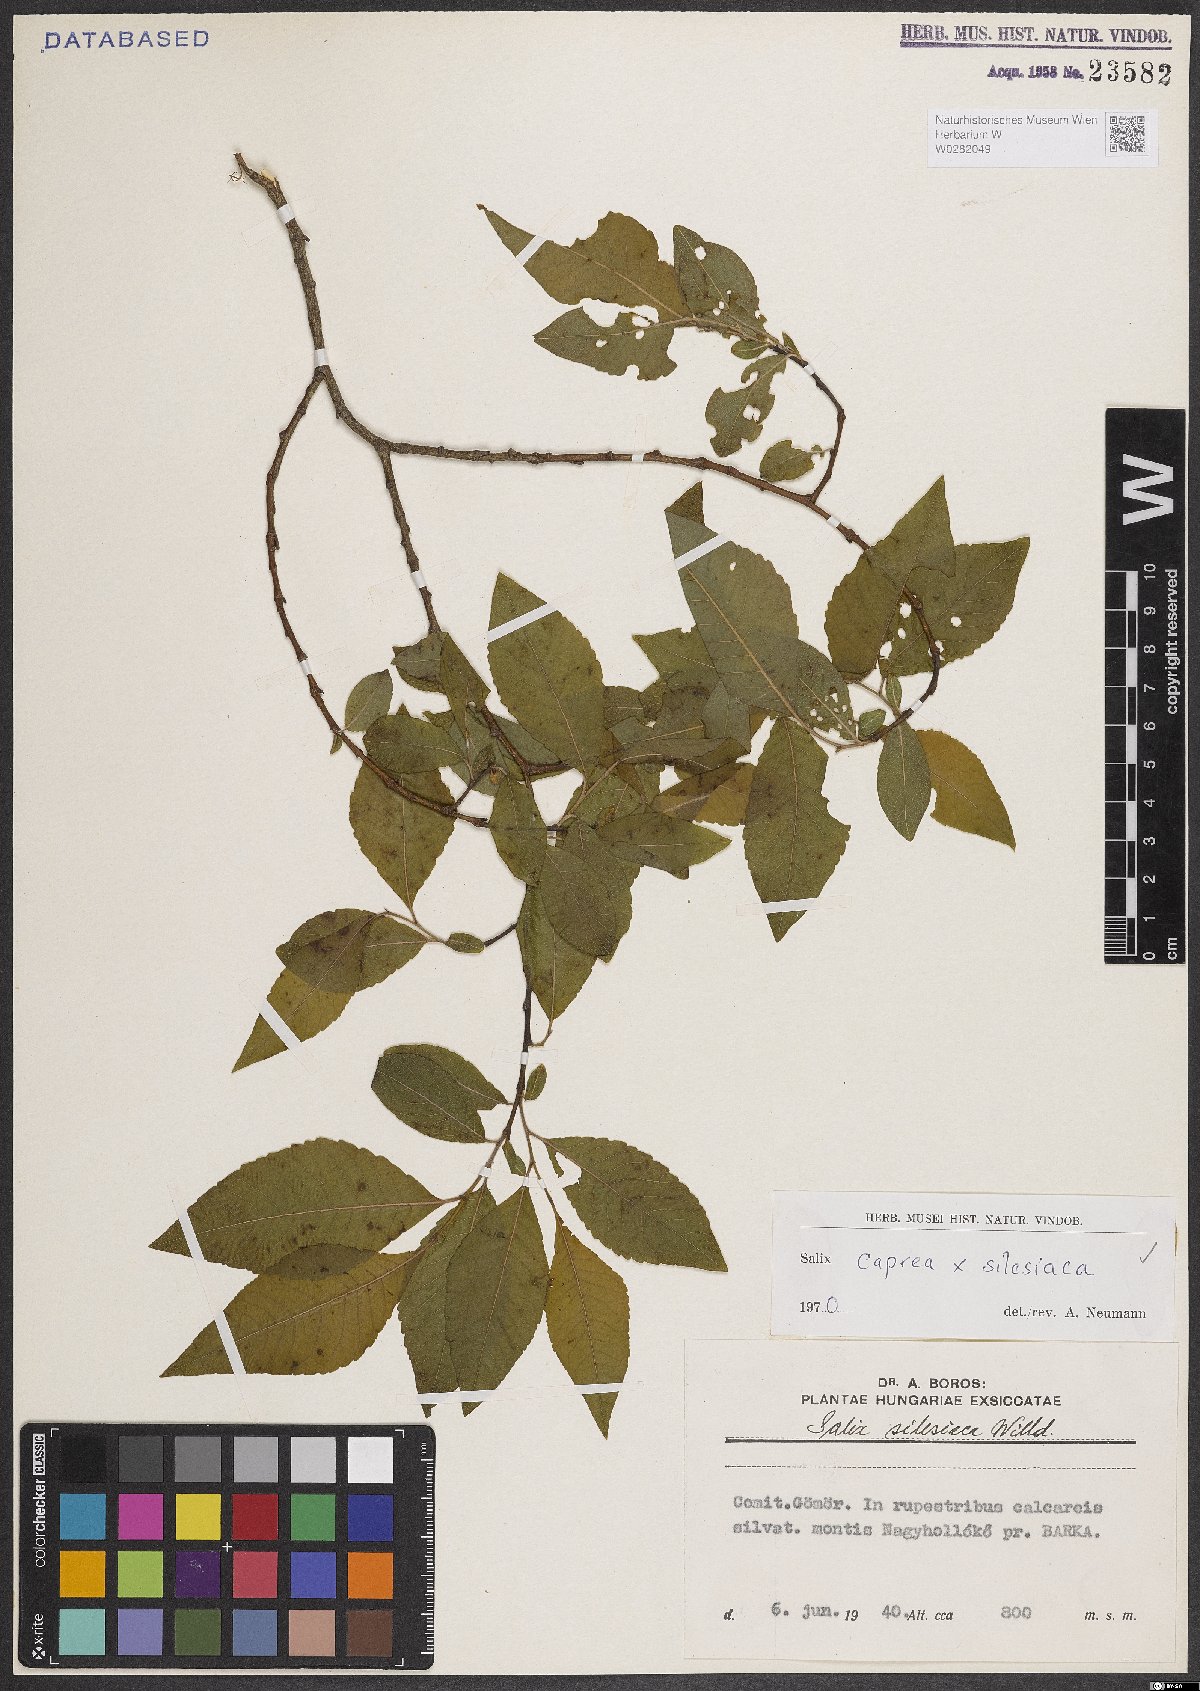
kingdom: Plantae
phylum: Tracheophyta
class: Magnoliopsida
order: Malpighiales
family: Salicaceae
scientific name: Salicaceae
